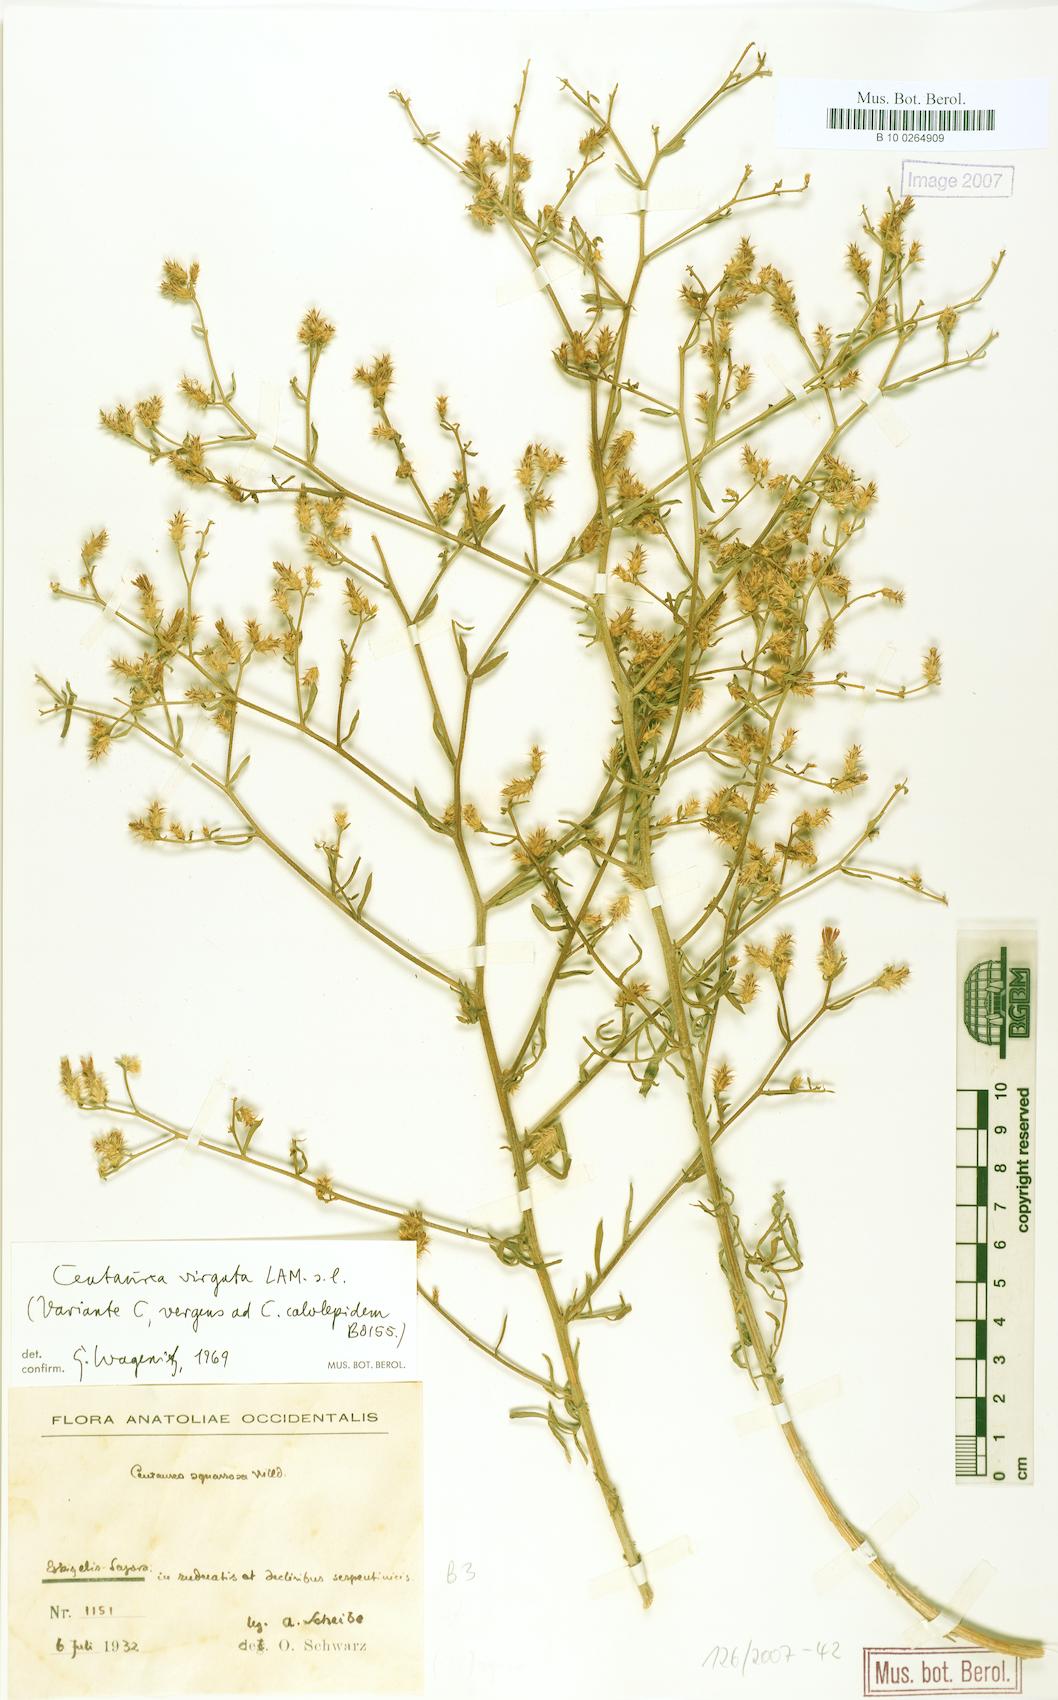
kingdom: Plantae
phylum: Tracheophyta
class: Magnoliopsida
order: Asterales
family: Asteraceae
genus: Centaurea
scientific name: Centaurea virgata
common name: Squarrose knapweed
